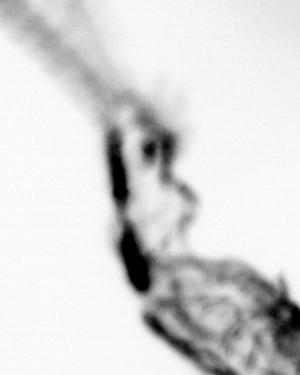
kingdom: Animalia
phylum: Chordata
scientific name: Chordata
